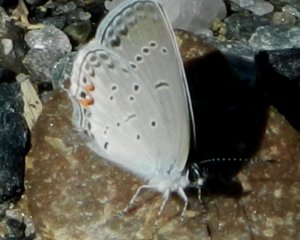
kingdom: Animalia
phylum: Arthropoda
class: Insecta
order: Lepidoptera
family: Lycaenidae
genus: Elkalyce
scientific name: Elkalyce comyntas
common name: Eastern Tailed-Blue
